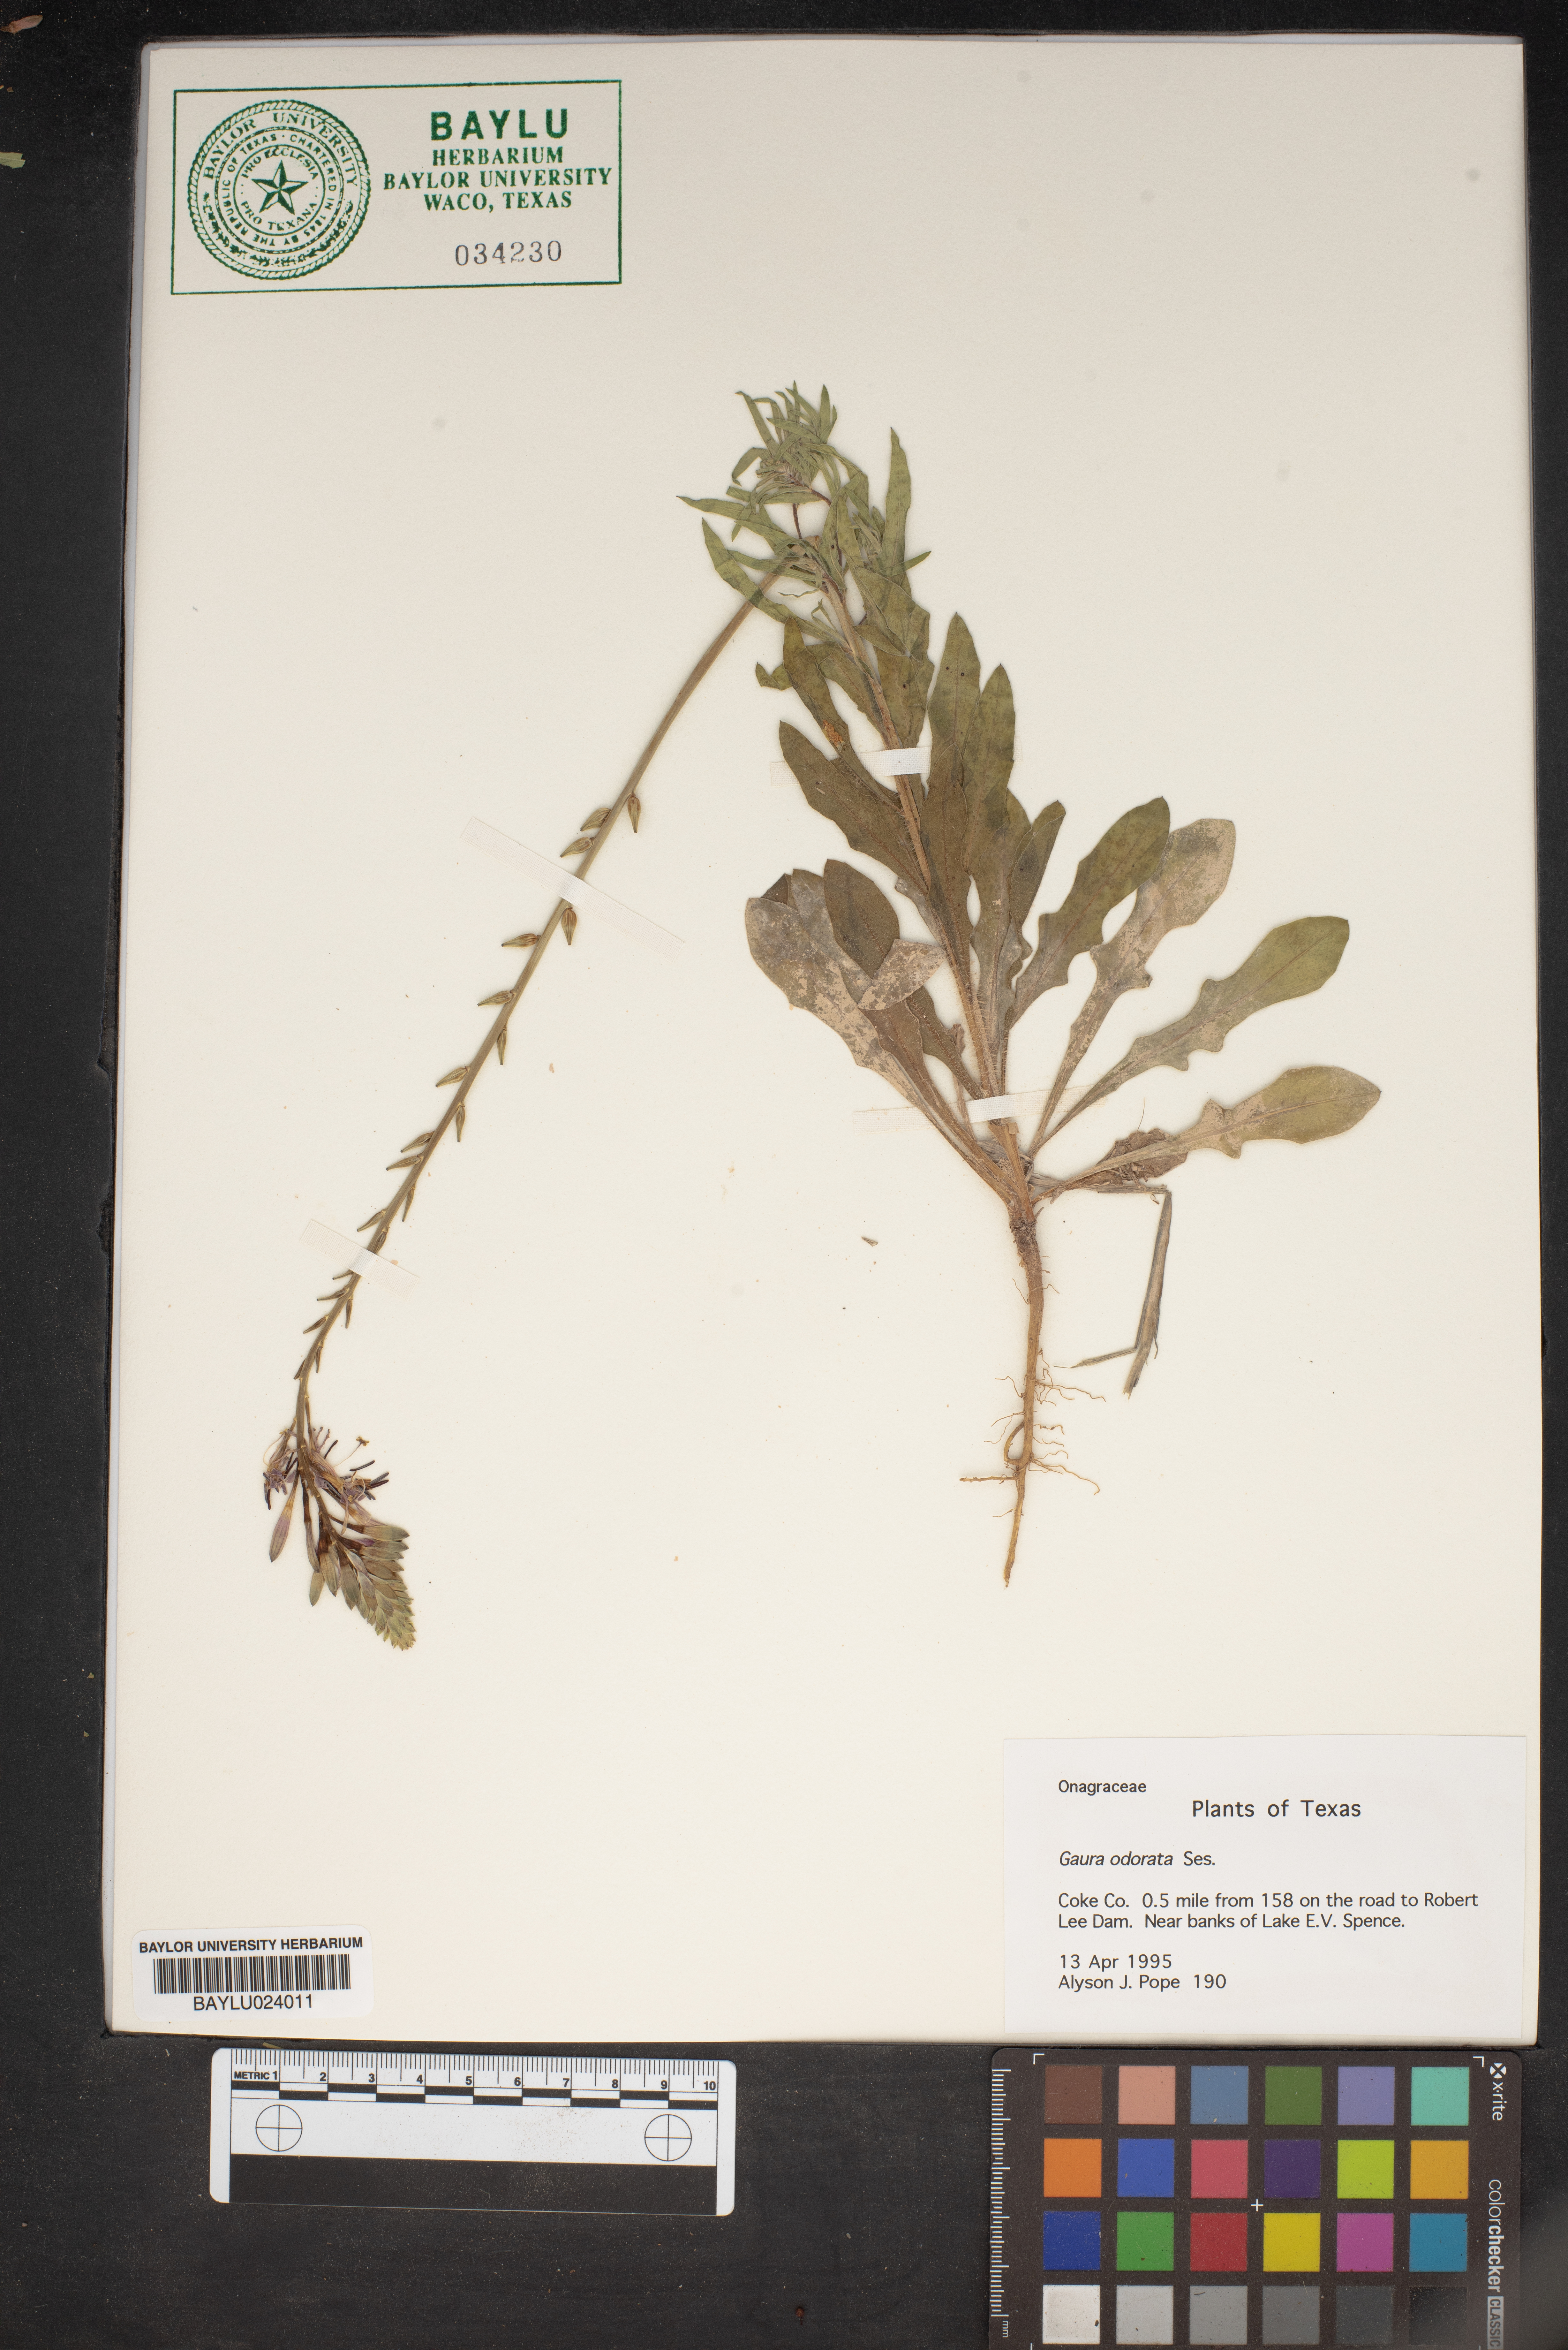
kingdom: Plantae
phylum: Tracheophyta
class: Magnoliopsida
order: Myrtales
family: Onagraceae
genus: Oenothera
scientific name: Oenothera
